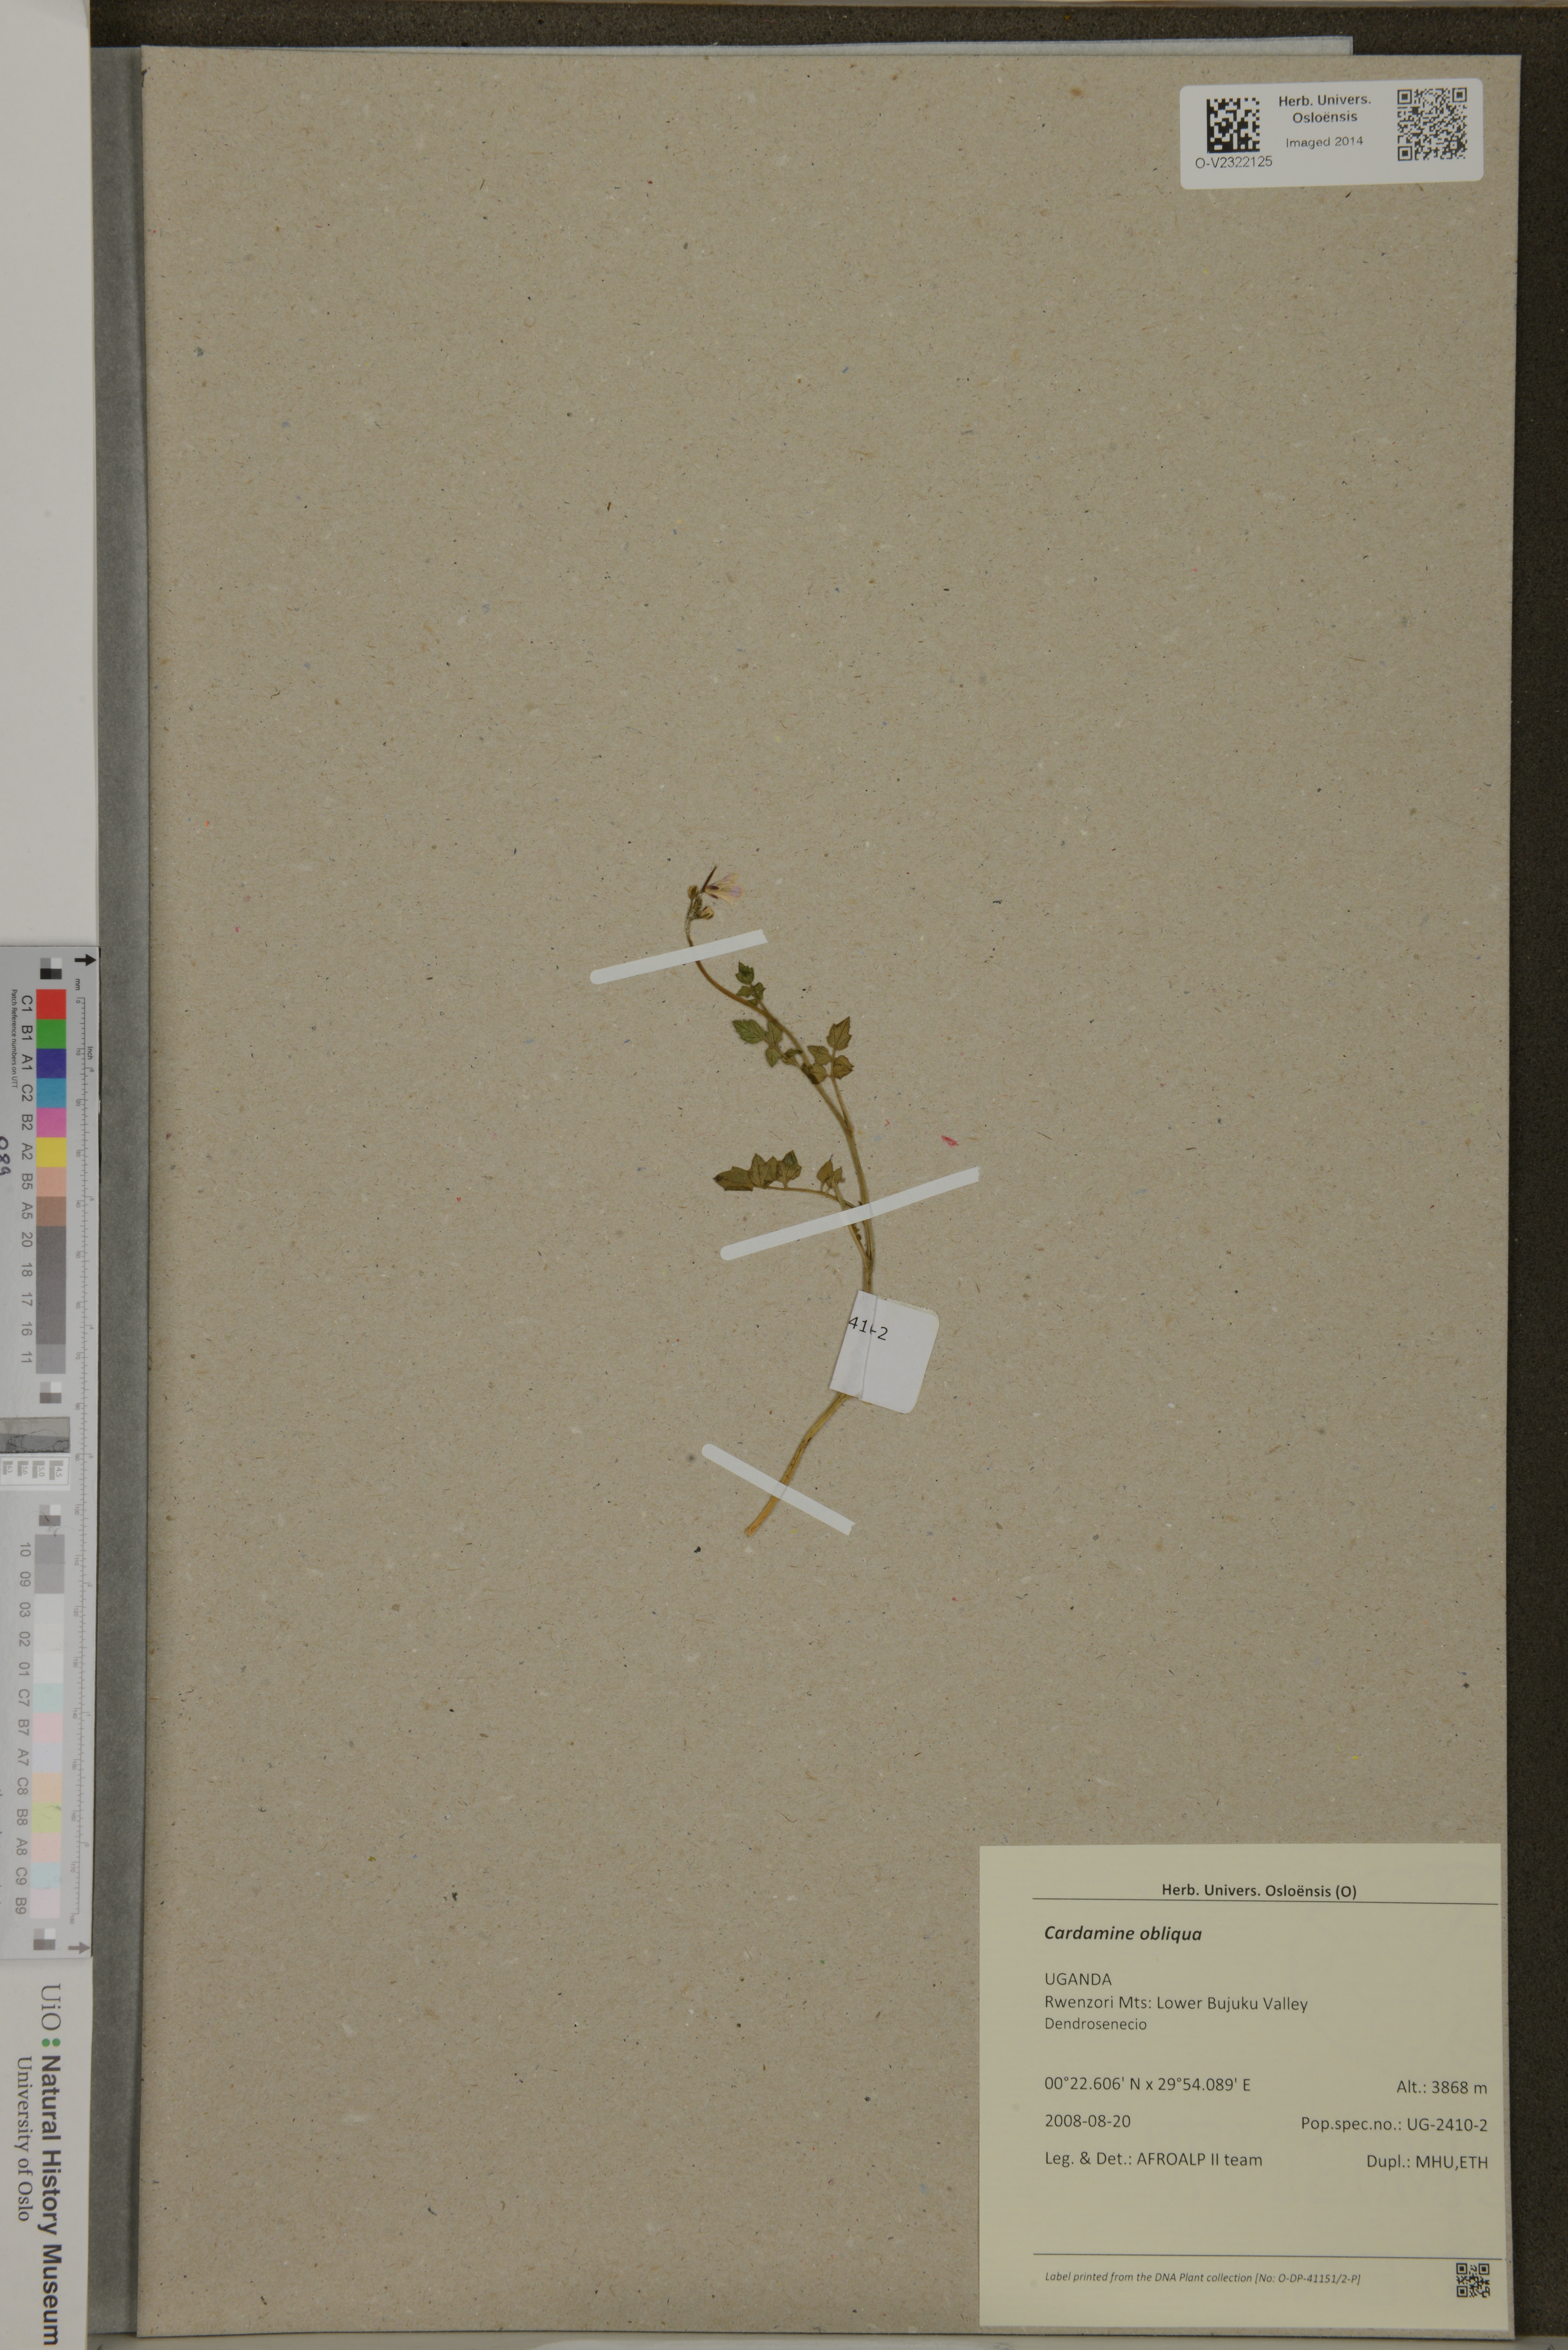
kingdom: Plantae
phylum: Tracheophyta
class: Magnoliopsida
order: Brassicales
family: Brassicaceae
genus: Cardamine
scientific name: Cardamine obliqua
